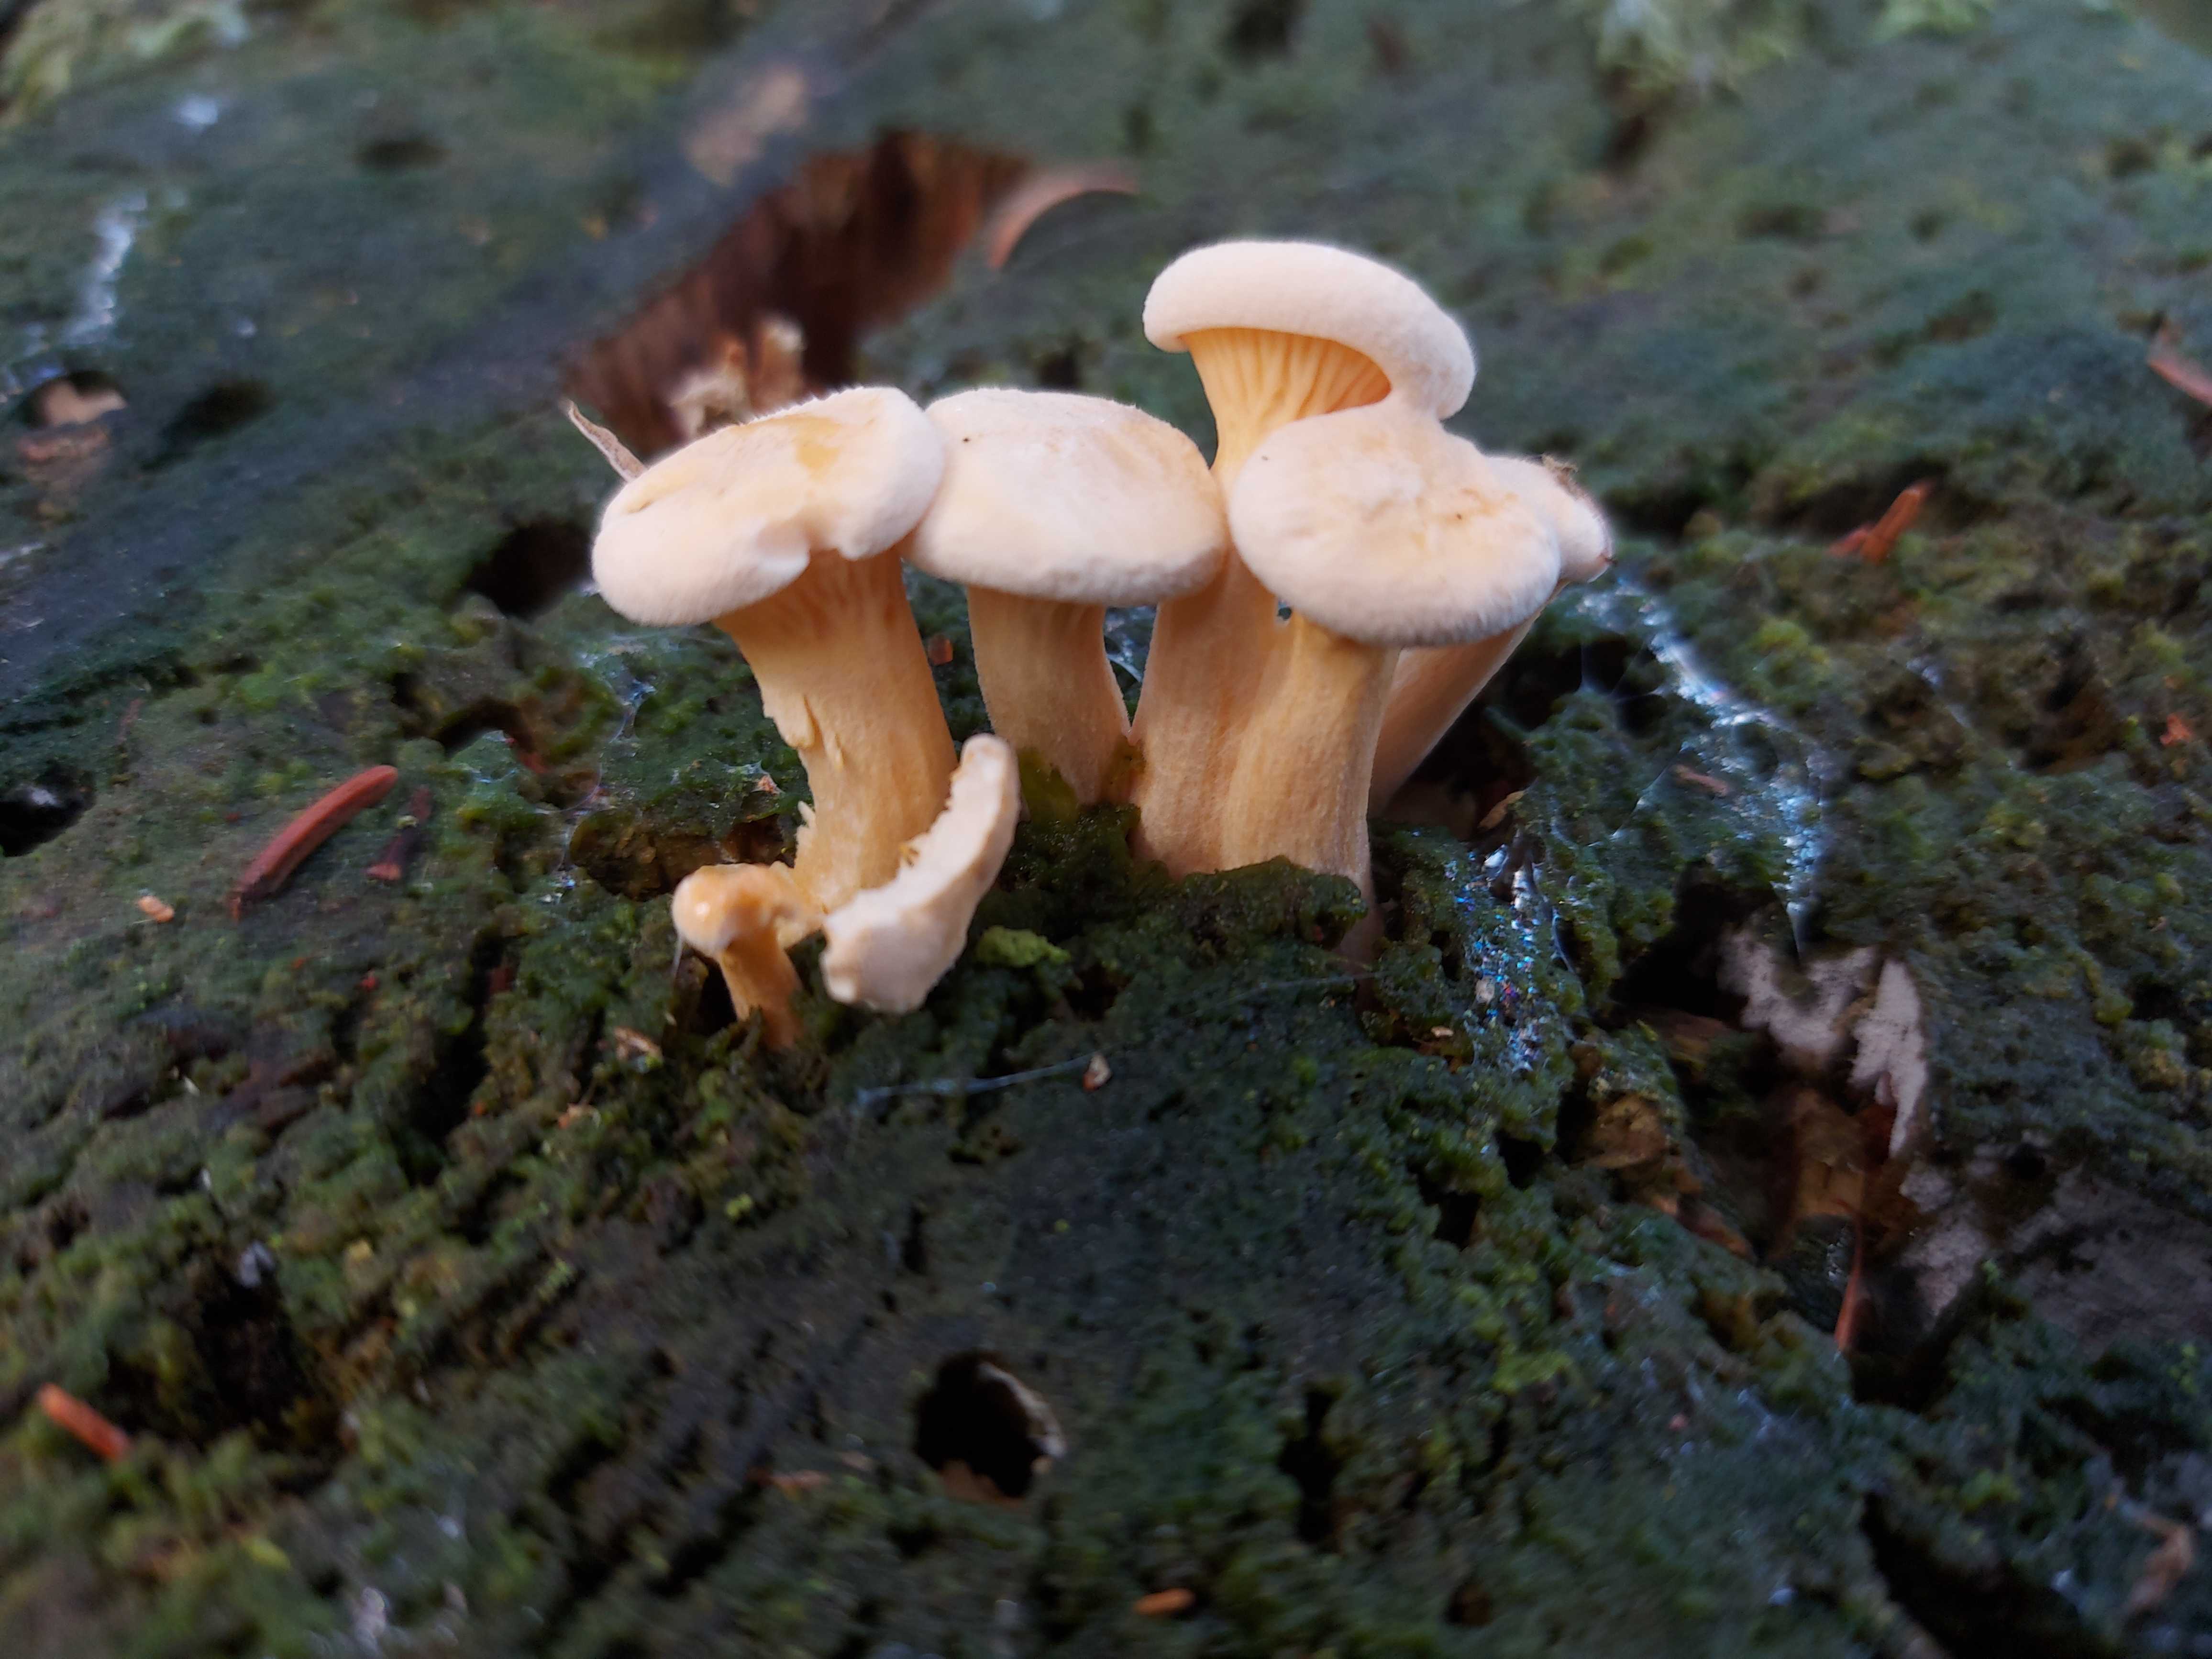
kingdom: Fungi
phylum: Basidiomycota
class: Agaricomycetes
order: Boletales
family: Hygrophoropsidaceae
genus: Hygrophoropsis
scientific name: Hygrophoropsis pallida
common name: bleg orangekantarel
